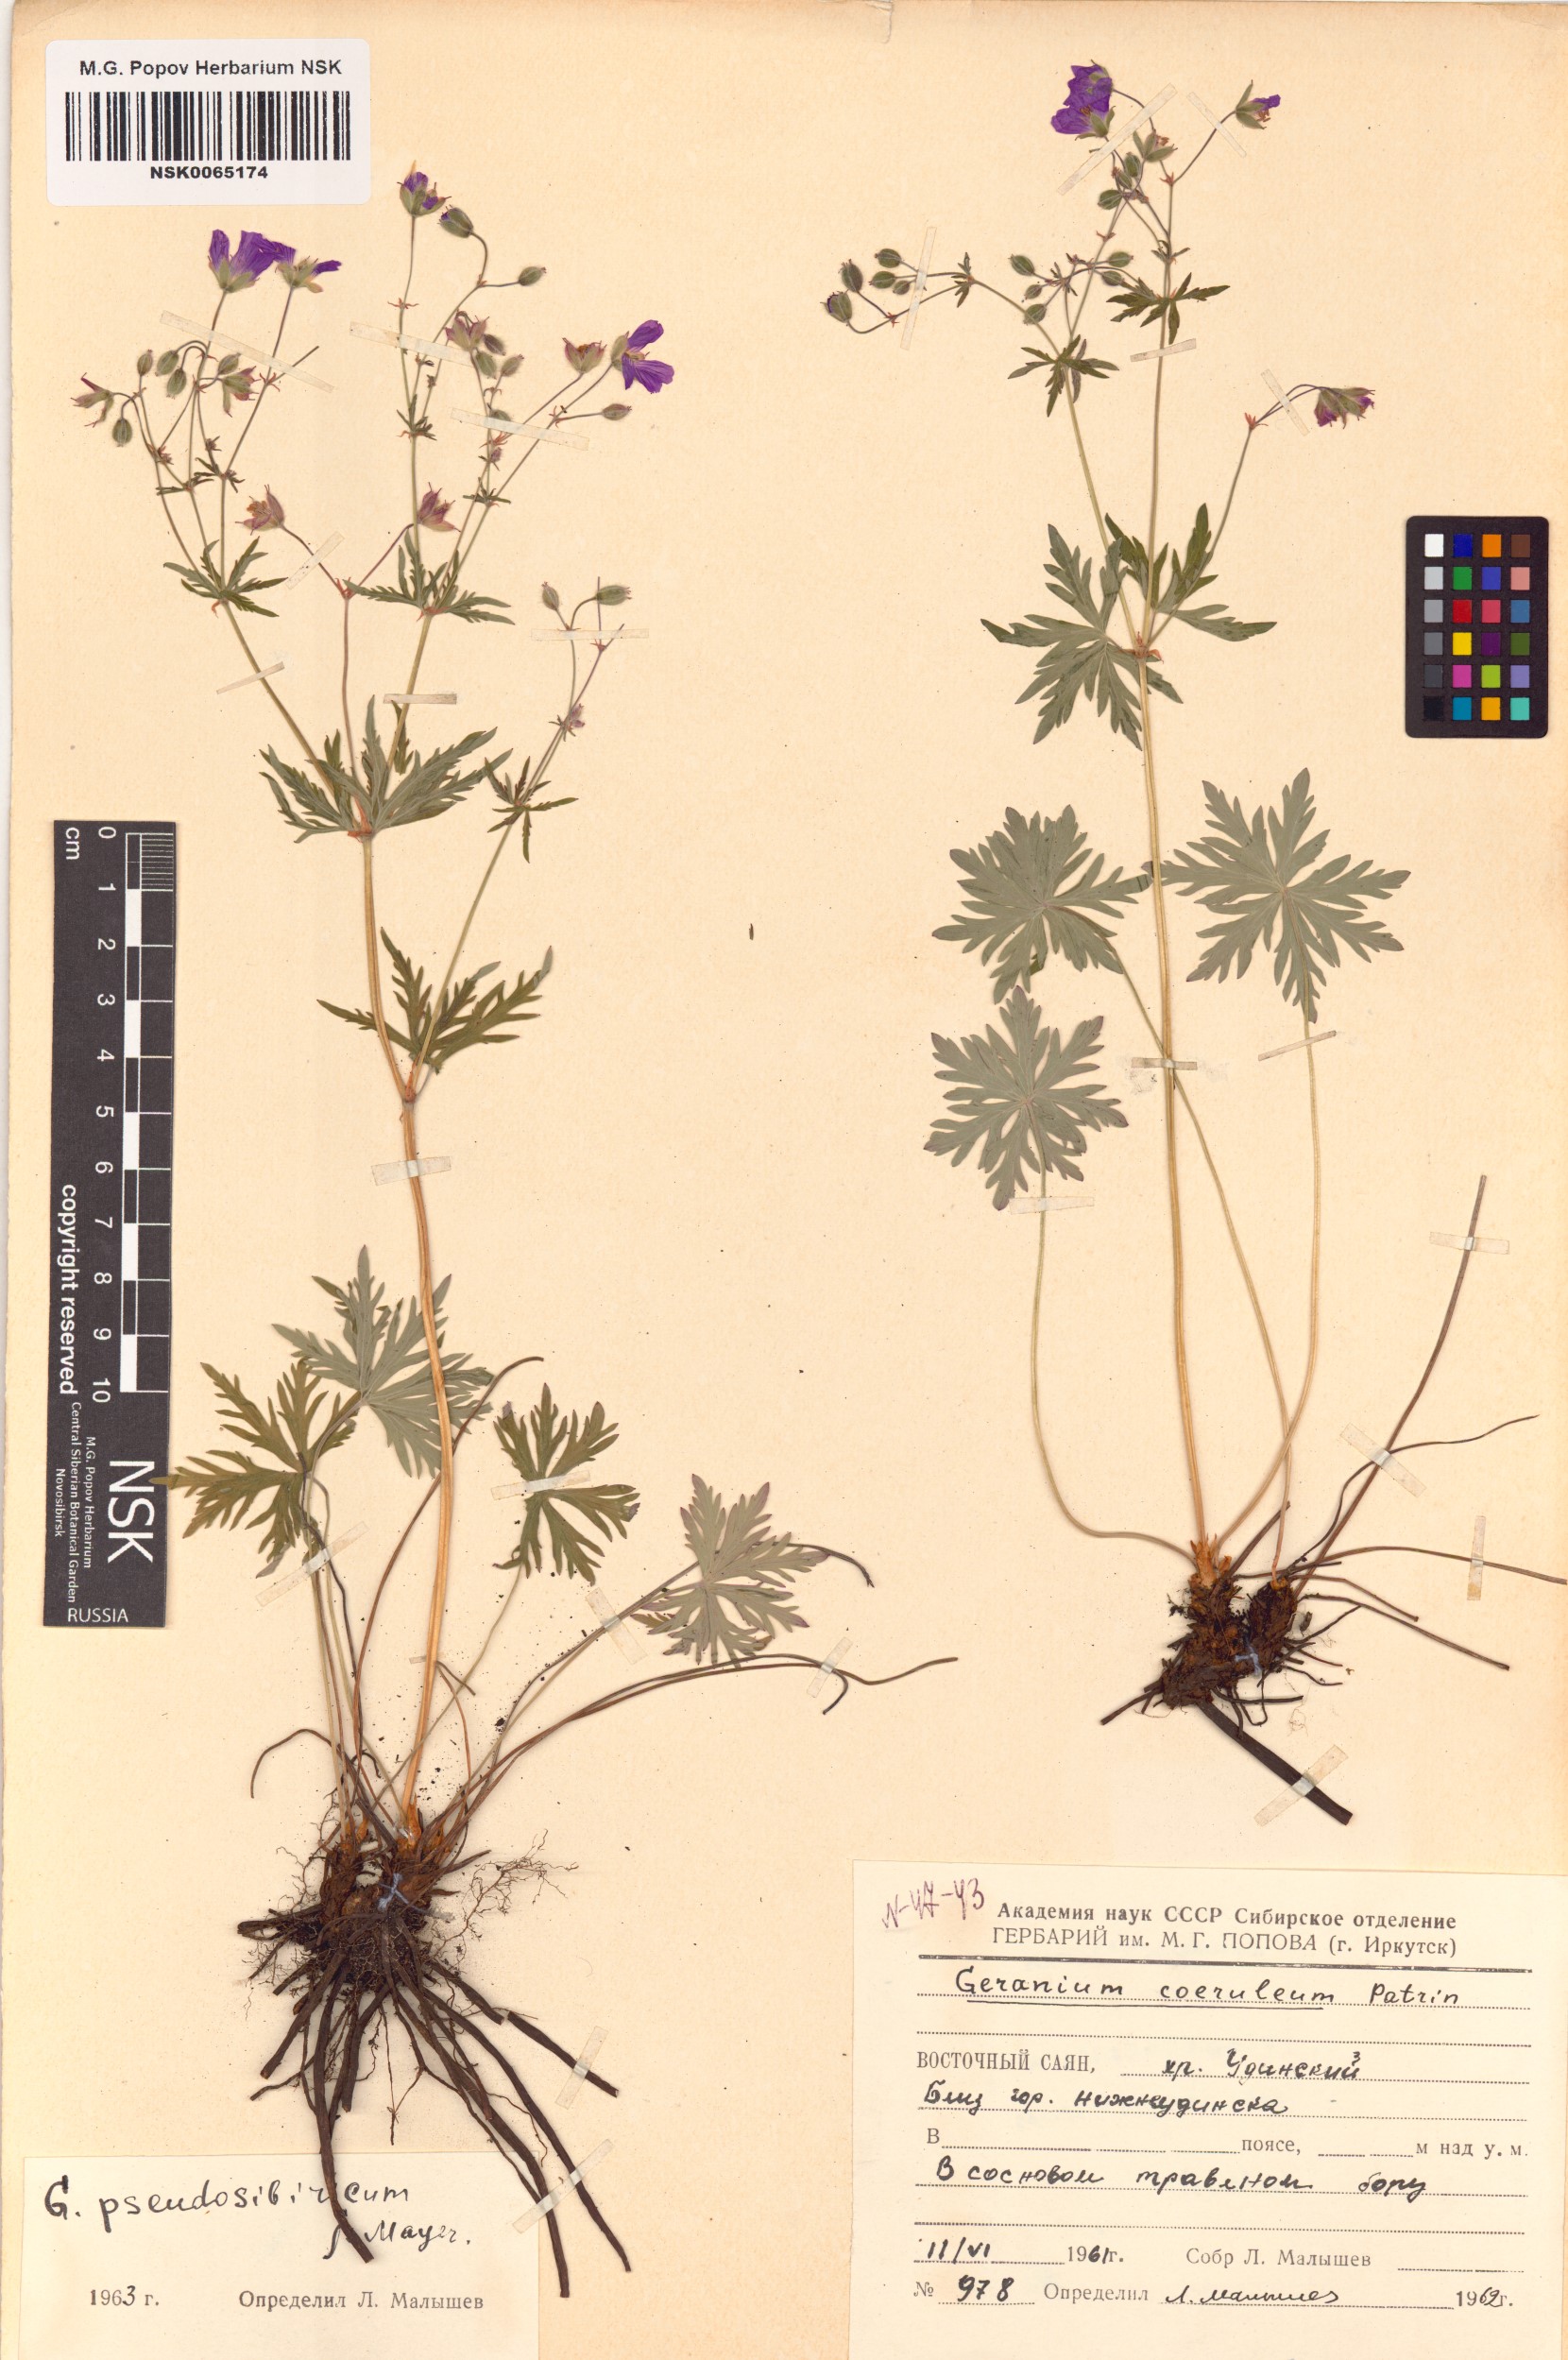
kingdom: Plantae
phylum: Tracheophyta
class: Magnoliopsida
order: Geraniales
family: Geraniaceae
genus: Geranium
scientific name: Geranium pseudosibiricum
